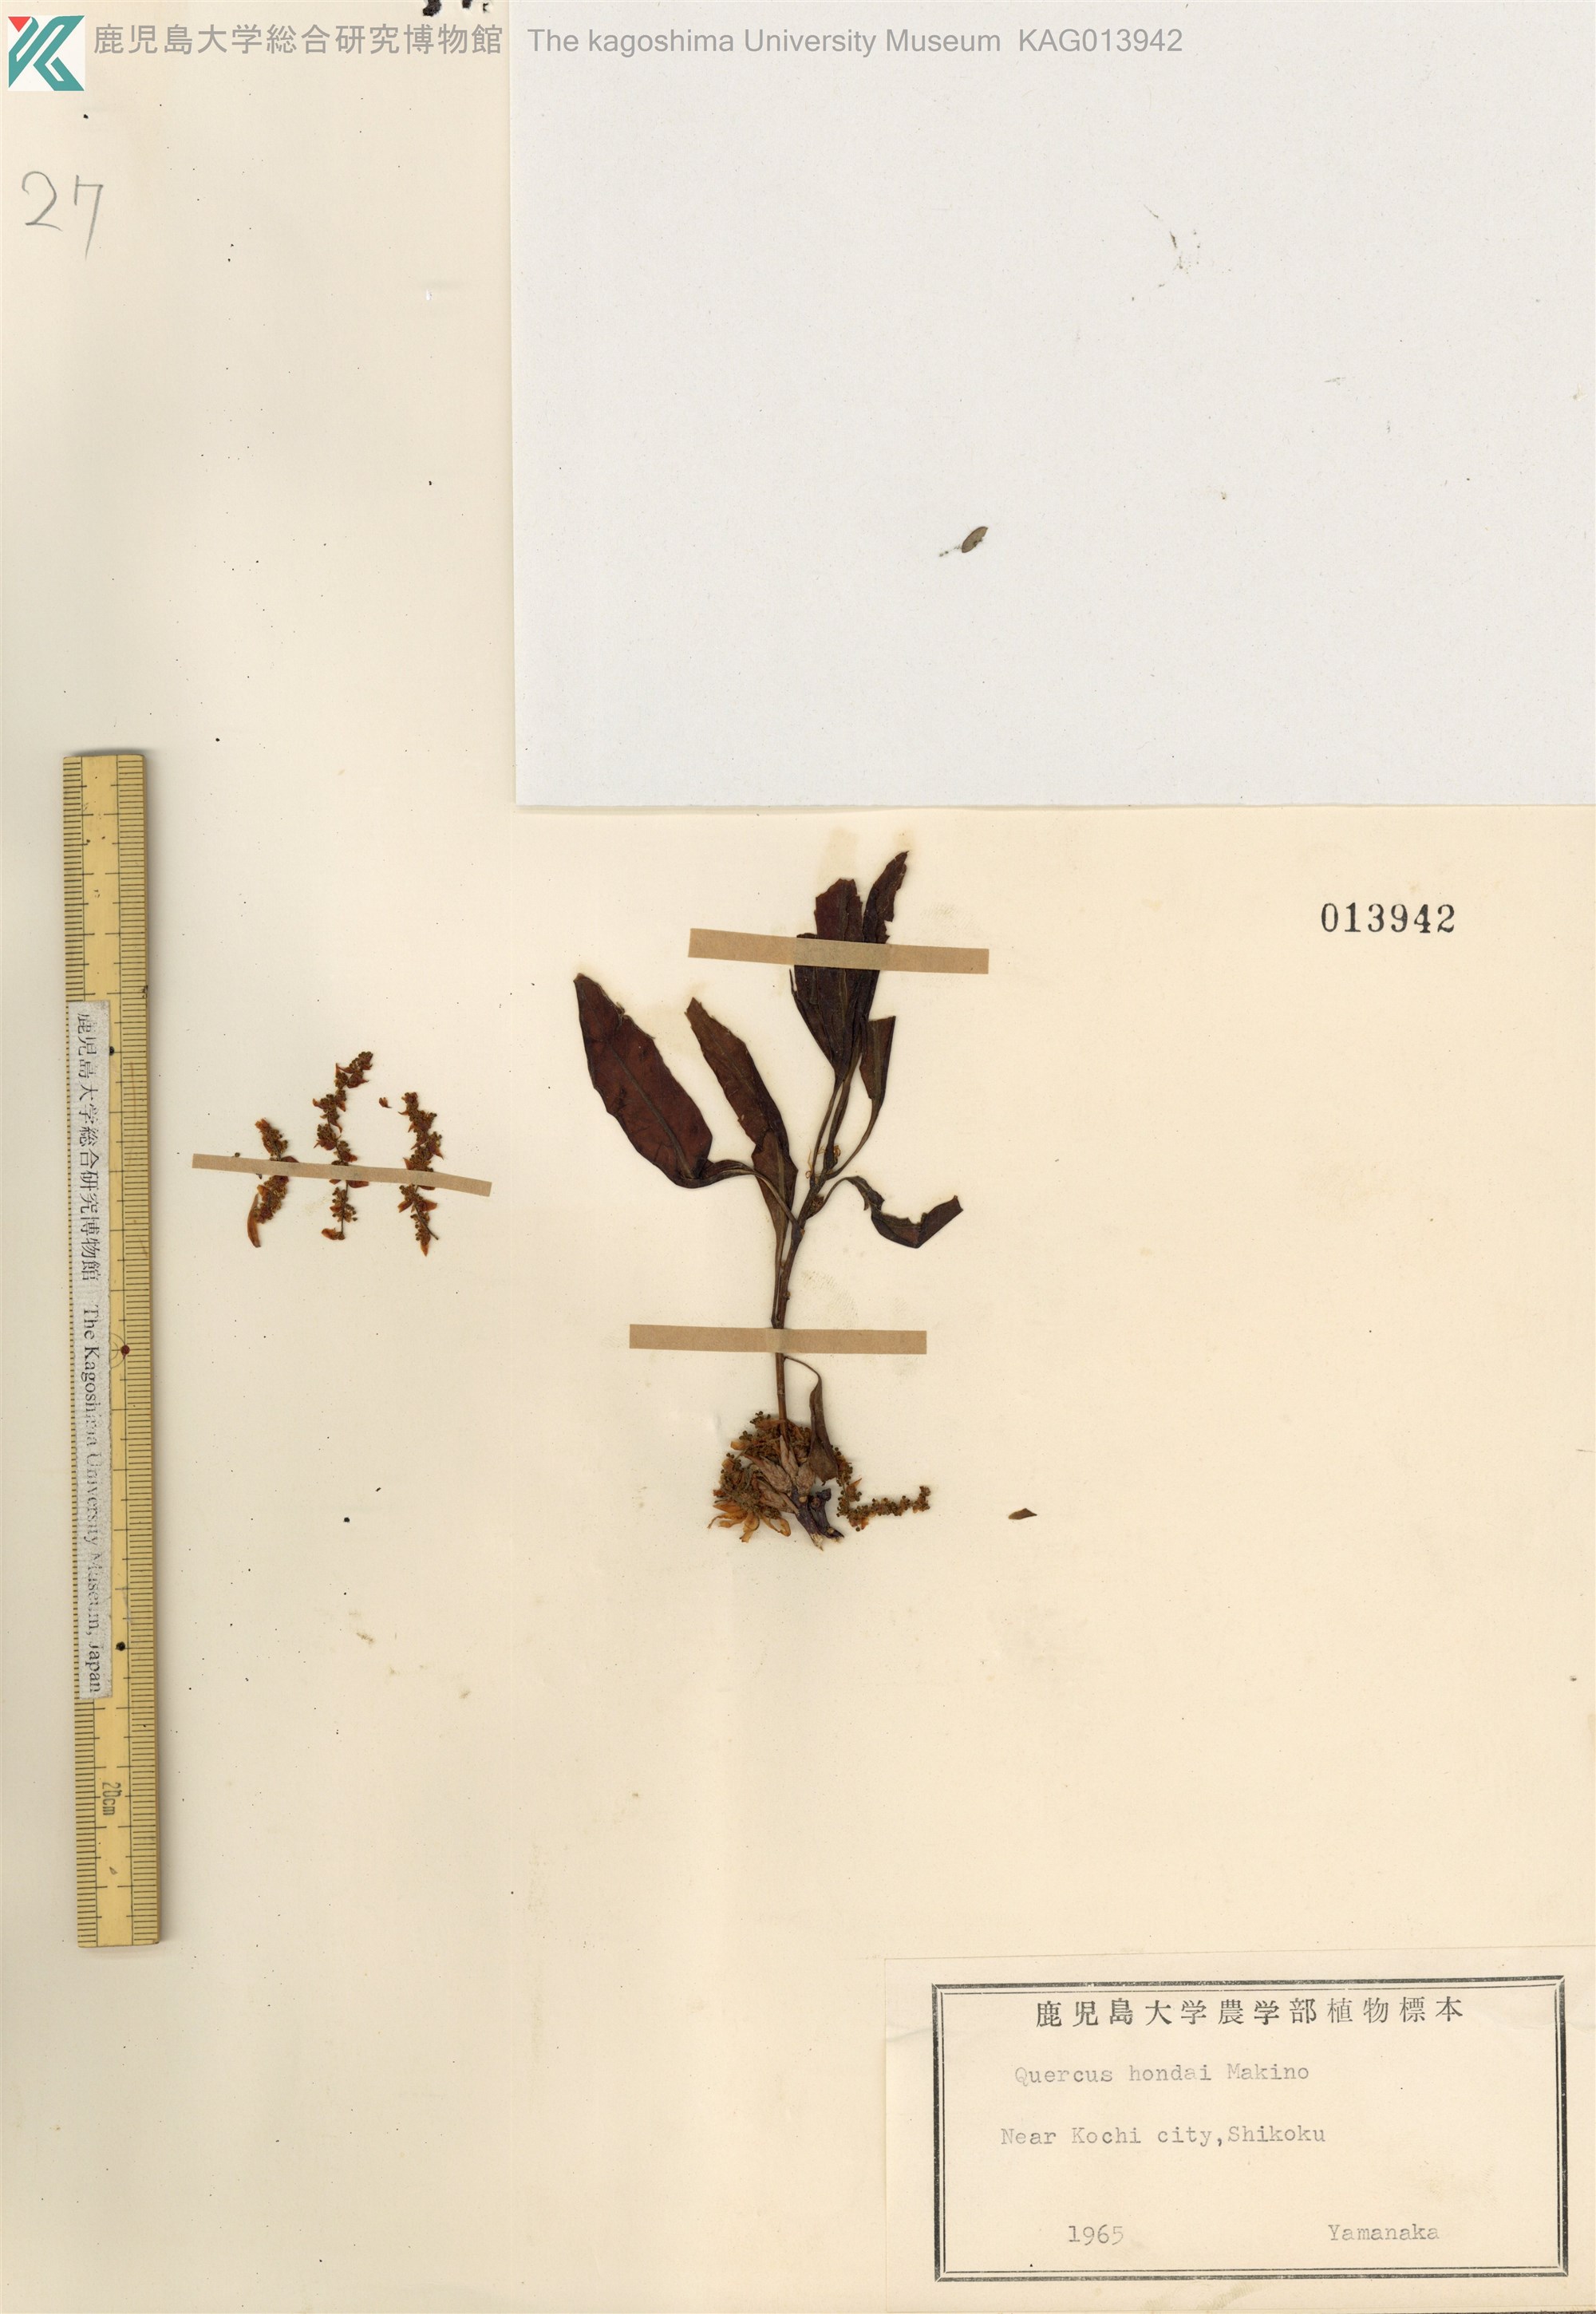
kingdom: Plantae
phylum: Tracheophyta
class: Magnoliopsida
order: Fagales
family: Fagaceae
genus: Quercus
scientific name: Quercus hondae
